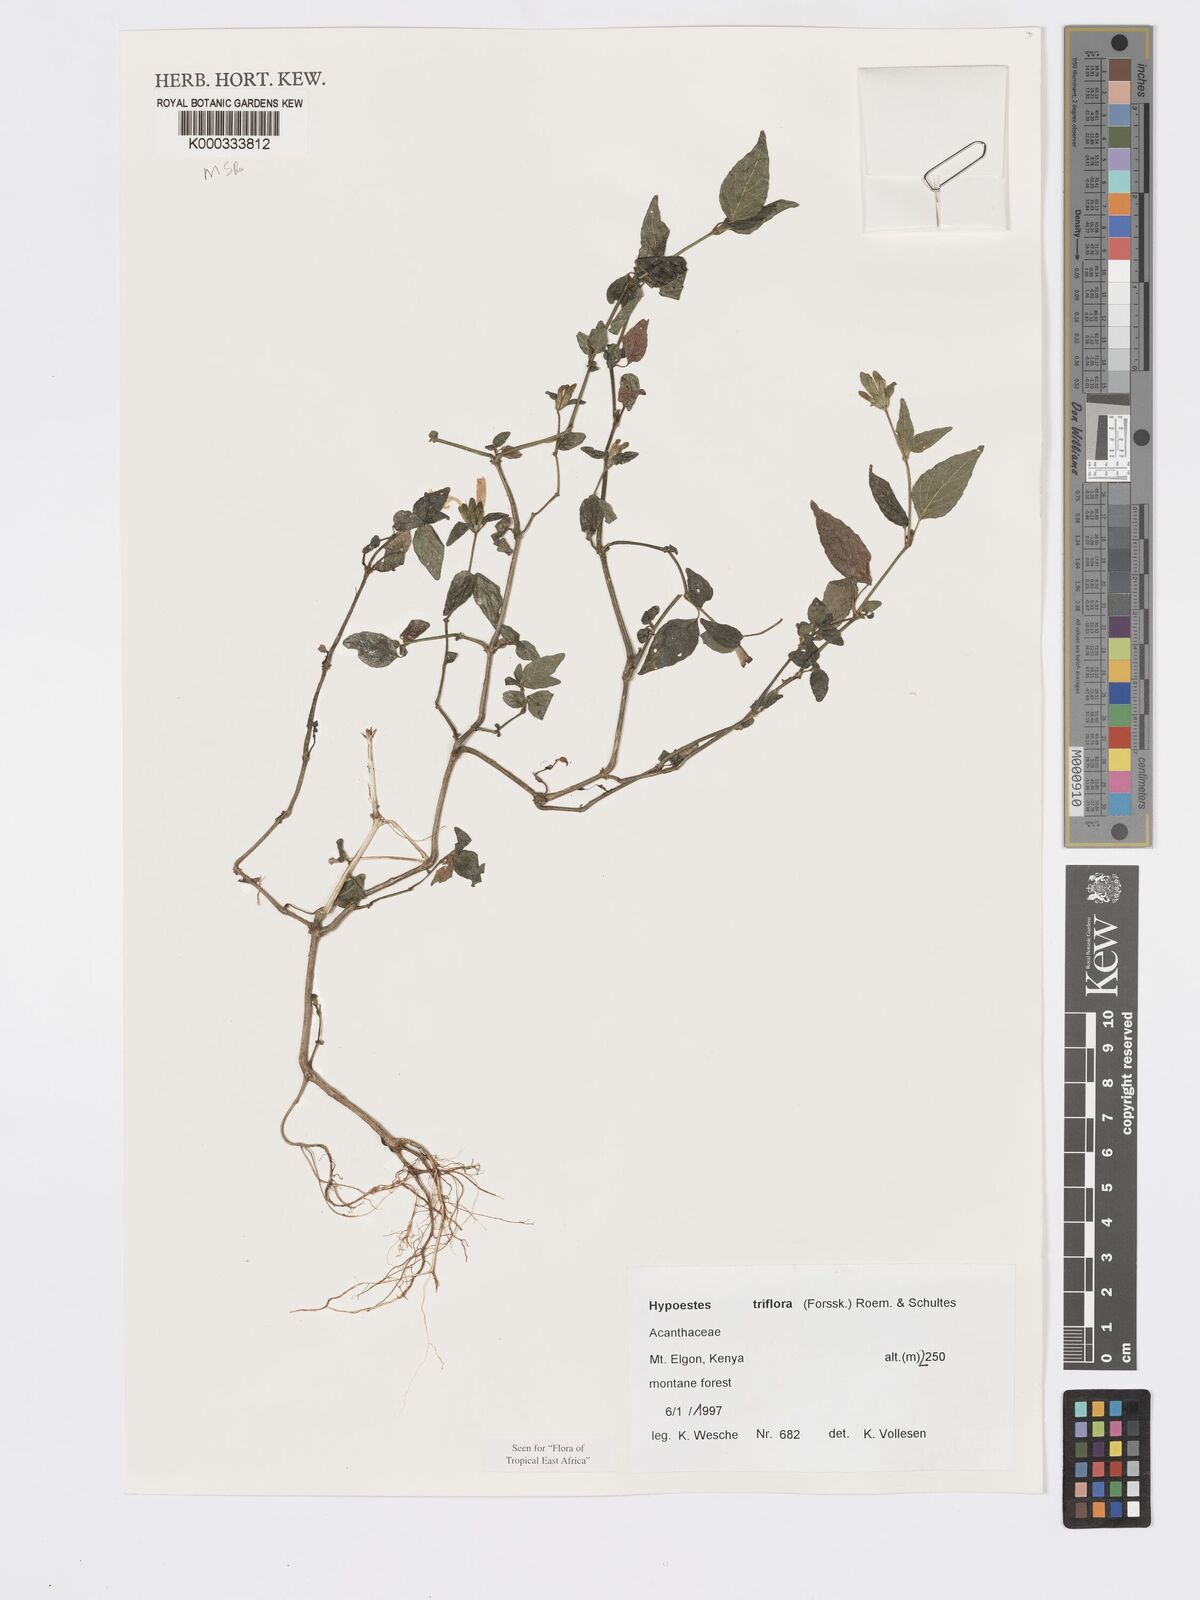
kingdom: Plantae
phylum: Tracheophyta
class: Magnoliopsida
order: Lamiales
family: Acanthaceae
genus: Hypoestes
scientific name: Hypoestes triflora
